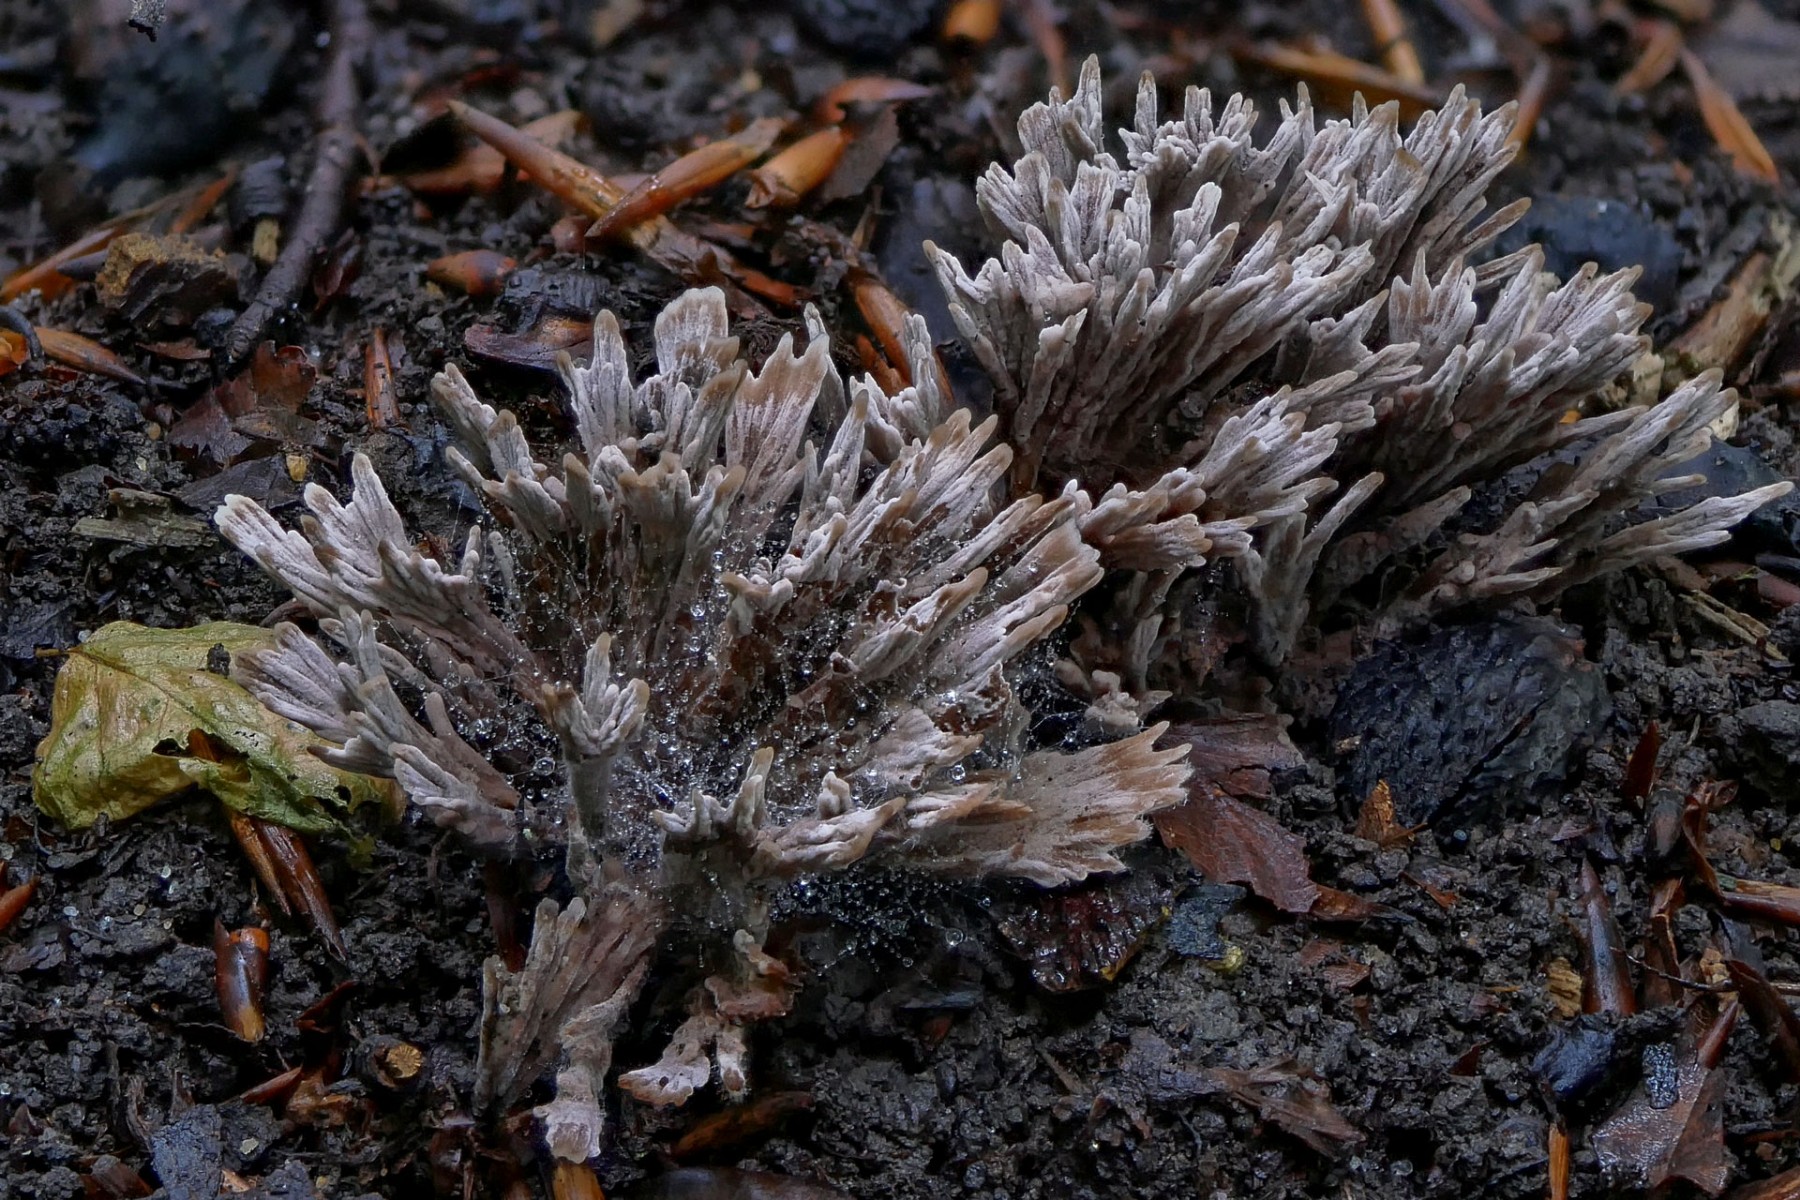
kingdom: Fungi
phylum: Basidiomycota
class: Agaricomycetes
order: Thelephorales
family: Thelephoraceae
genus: Thelephora
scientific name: Thelephora anthocephala
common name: busk-frynsesvamp
